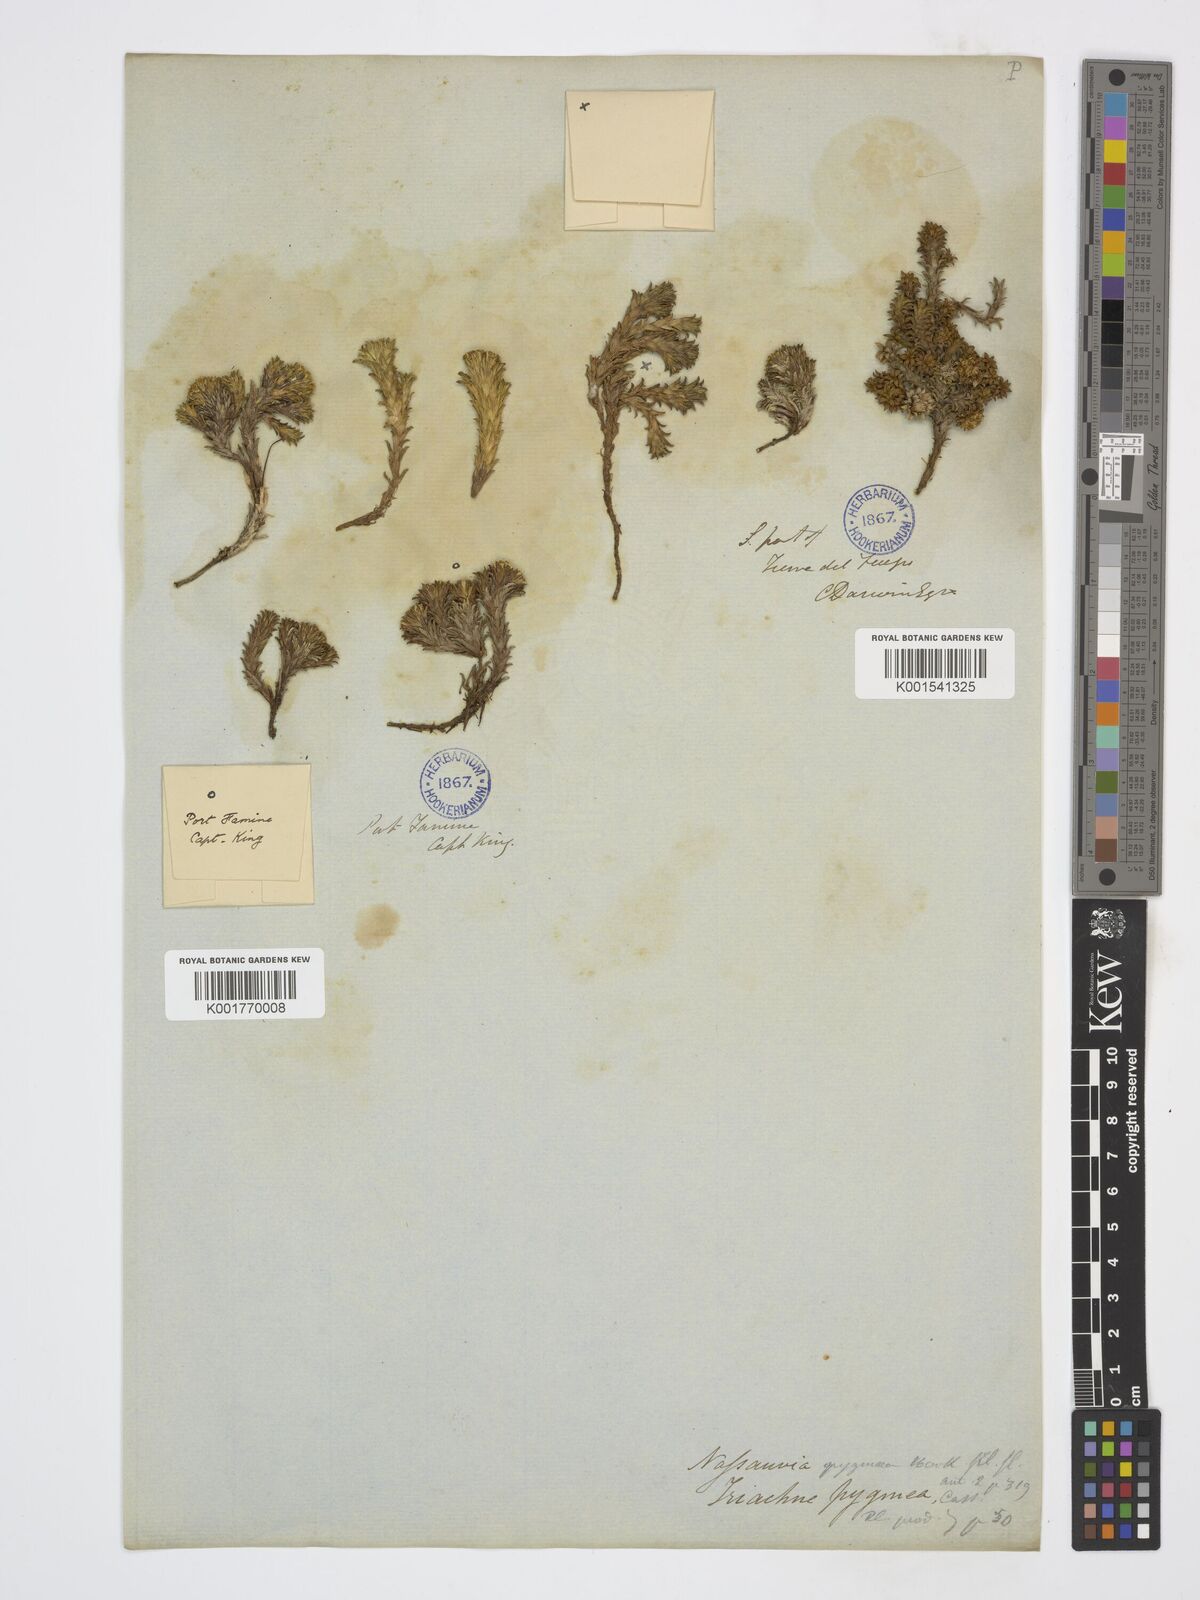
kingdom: Plantae
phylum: Tracheophyta
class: Magnoliopsida
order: Asterales
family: Asteraceae
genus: Nassauvia
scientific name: Nassauvia pygmaea
